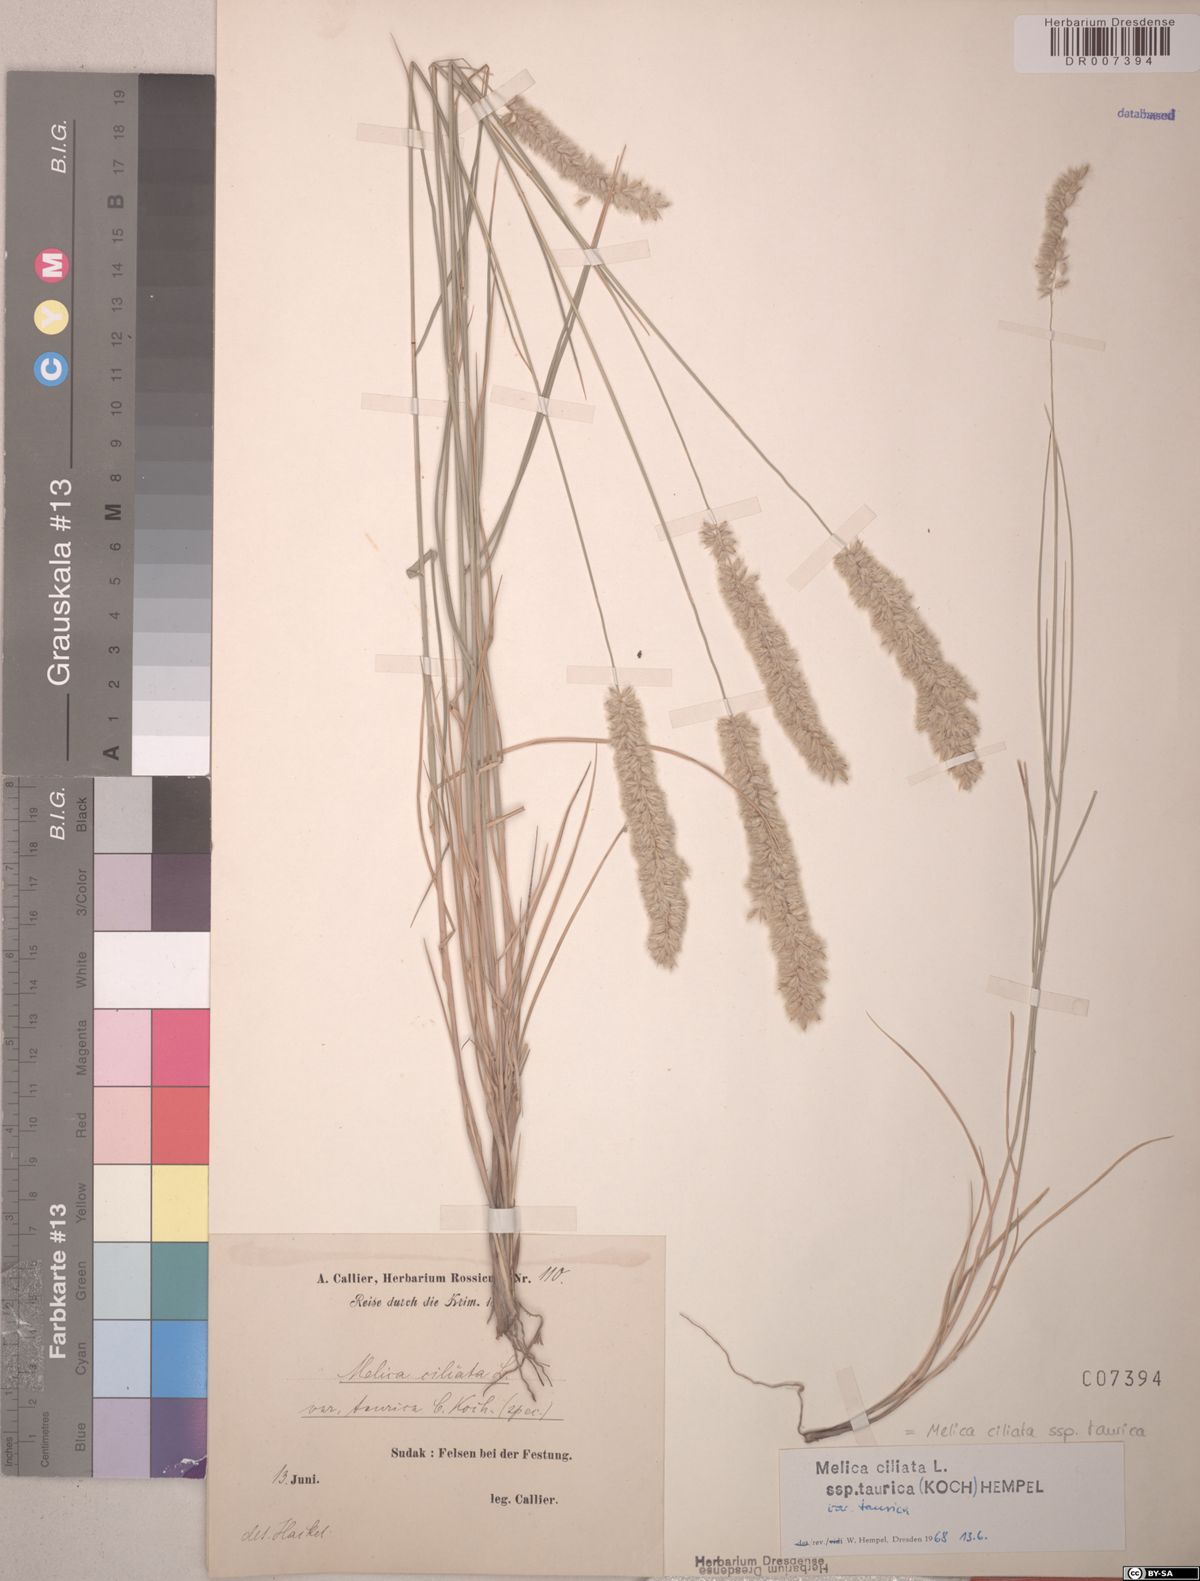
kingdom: Plantae
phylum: Tracheophyta
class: Liliopsida
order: Poales
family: Poaceae
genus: Melica
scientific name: Melica ciliata
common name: Hairy melicgrass
